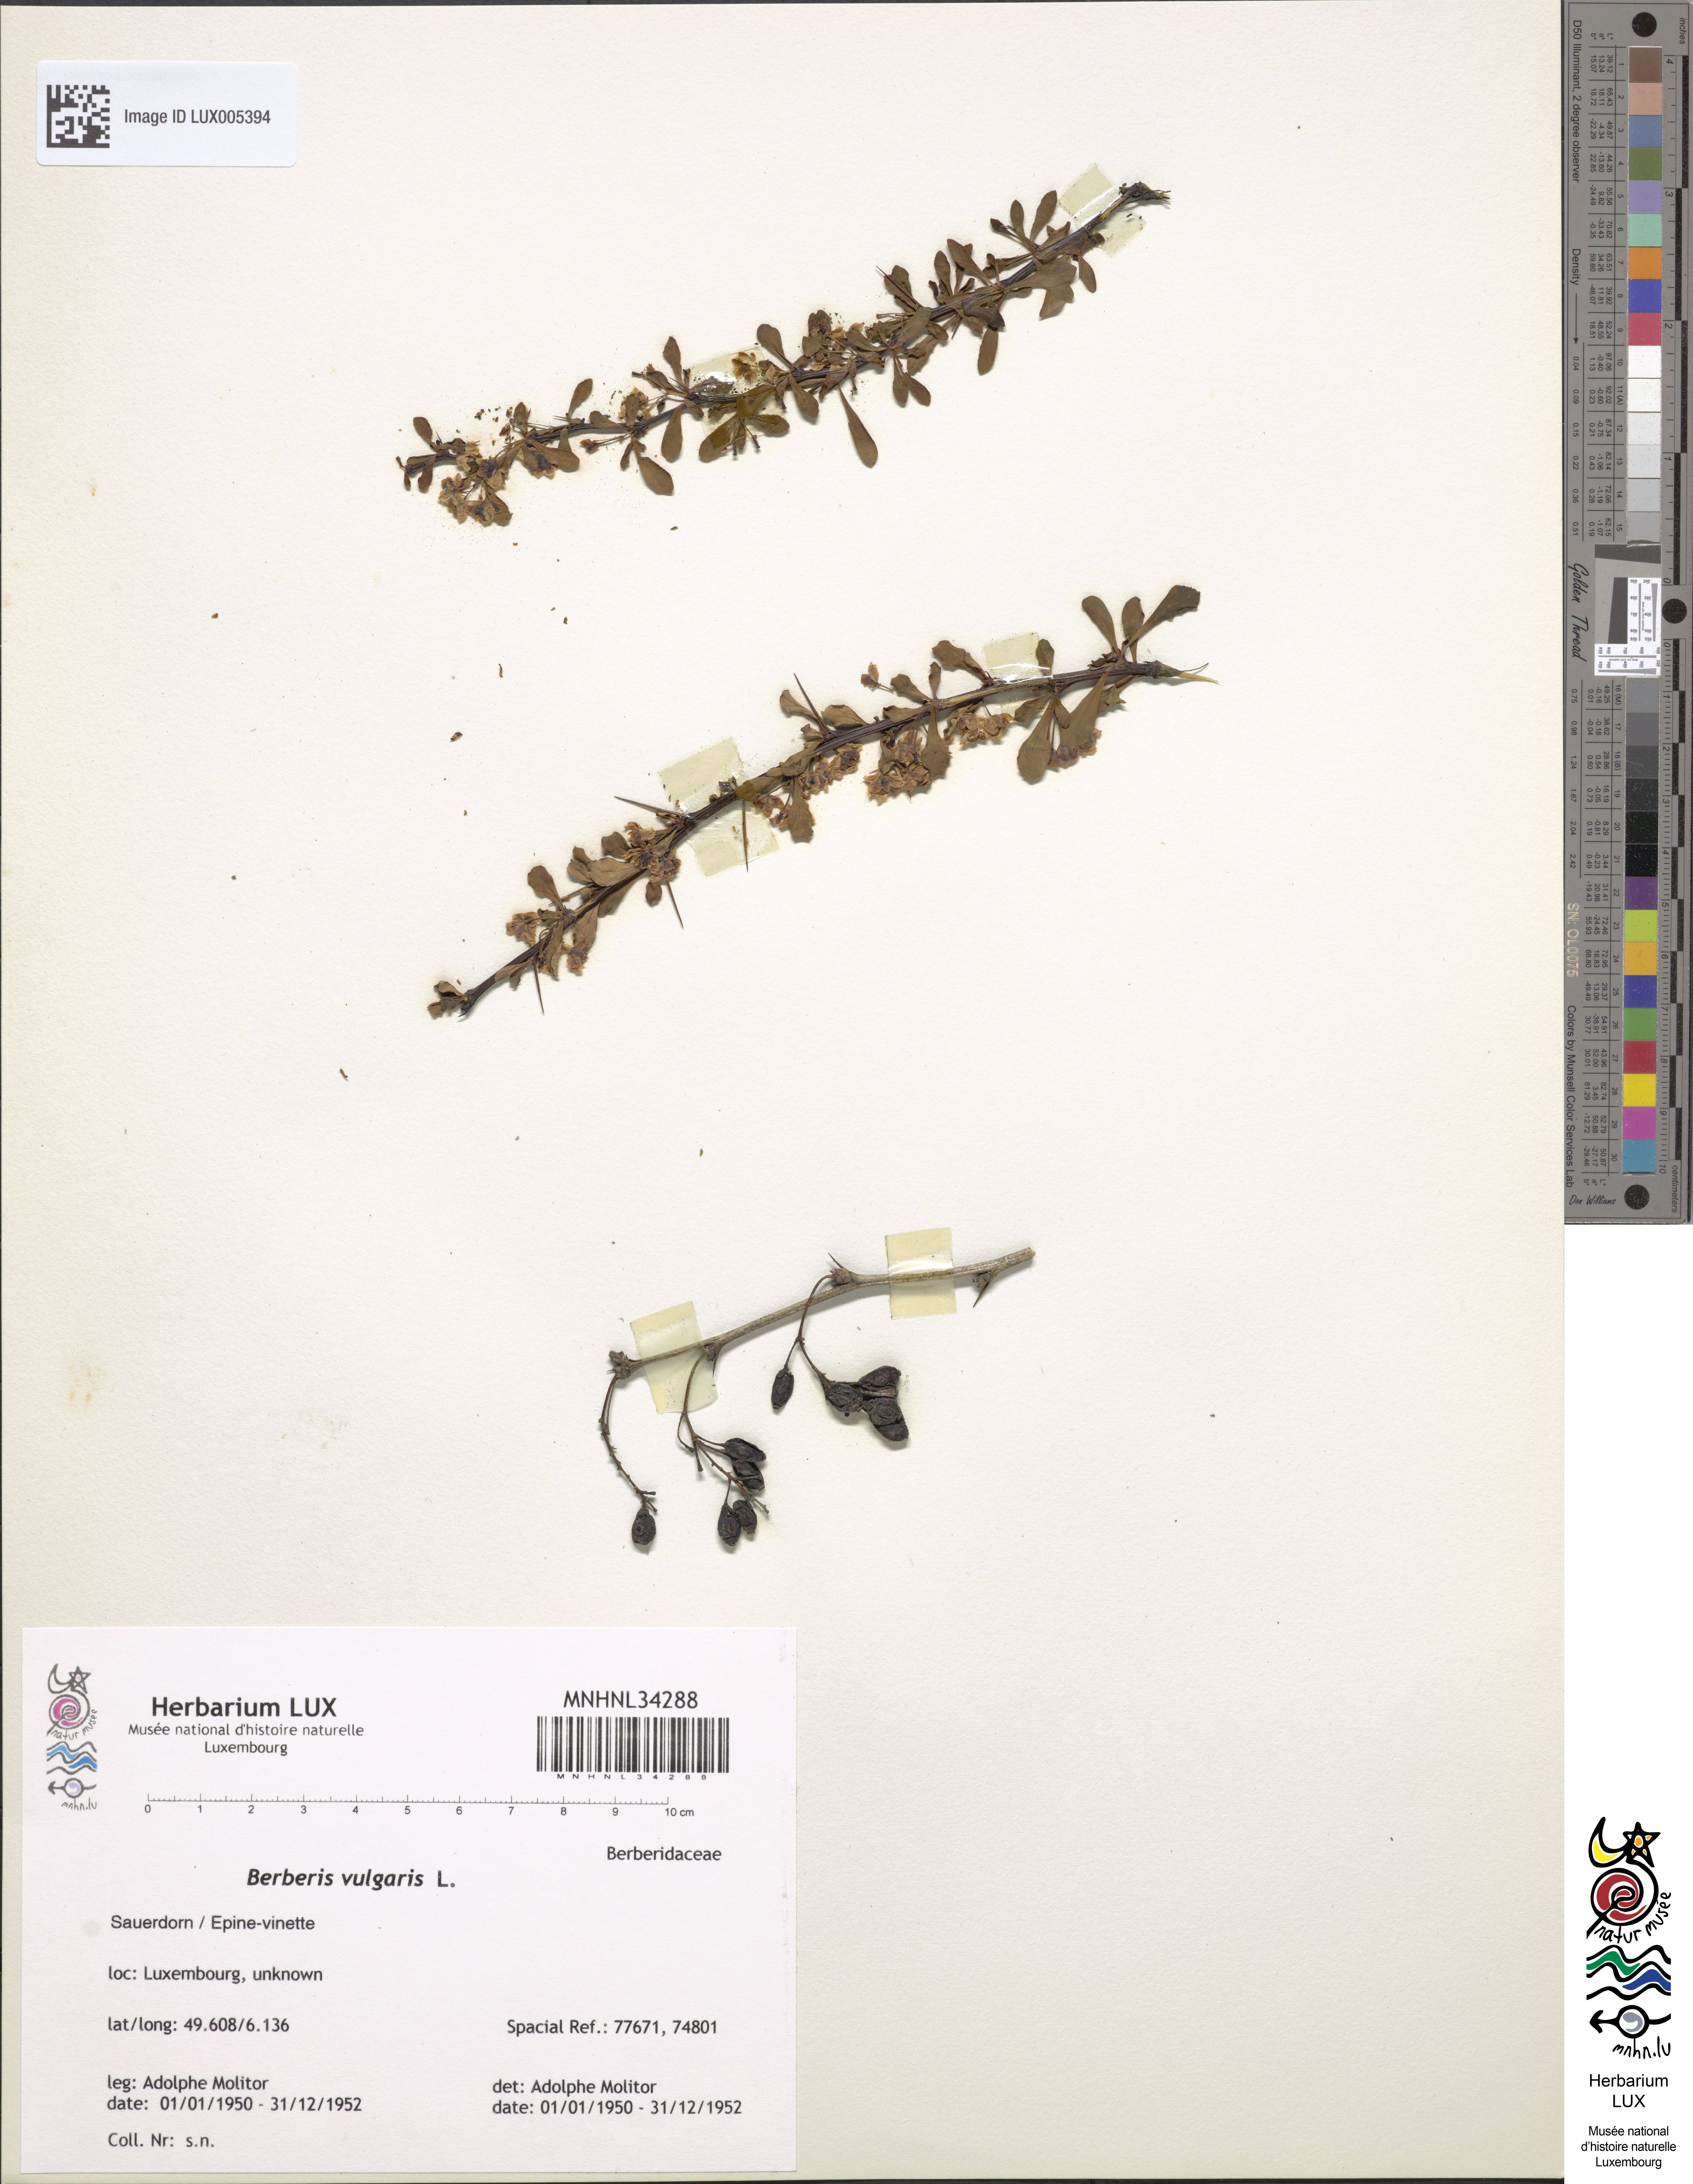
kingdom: Plantae
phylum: Tracheophyta
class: Magnoliopsida
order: Ranunculales
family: Berberidaceae
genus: Berberis
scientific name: Berberis vulgaris
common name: Barberry
